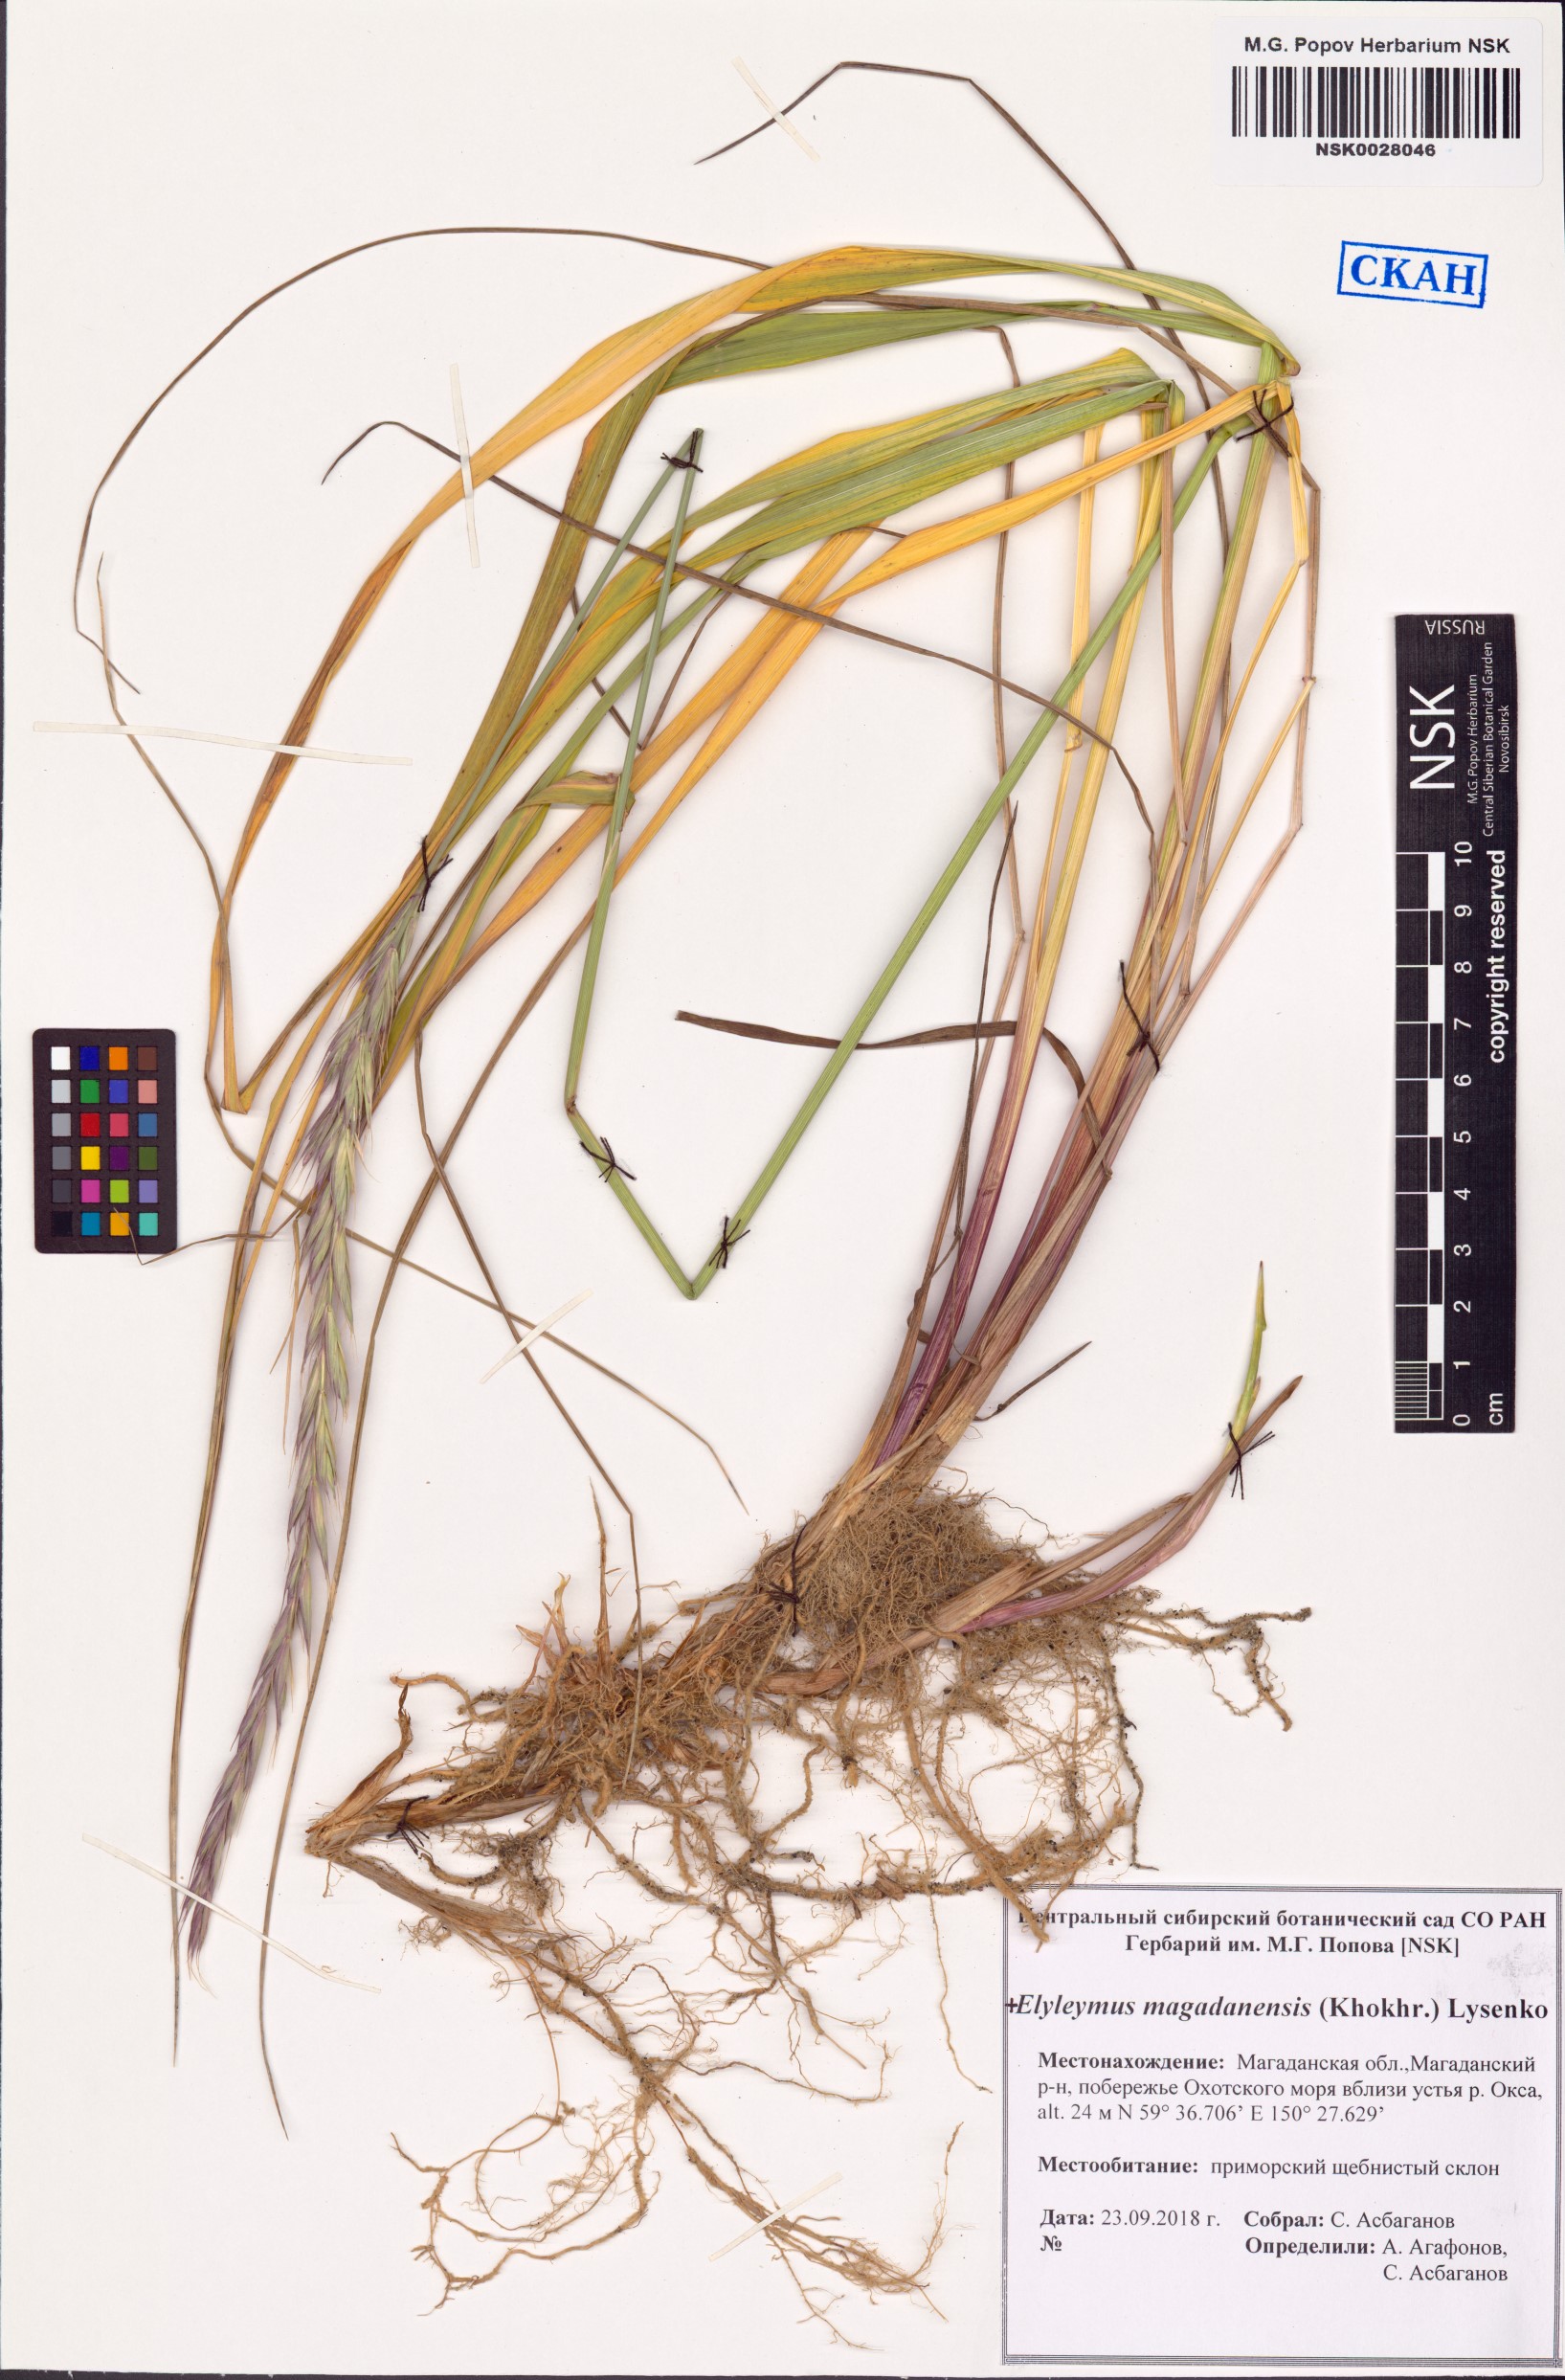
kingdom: Plantae
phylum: Tracheophyta
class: Liliopsida
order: Poales
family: Poaceae
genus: Elyleymus
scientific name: Elyleymus magadanensis
